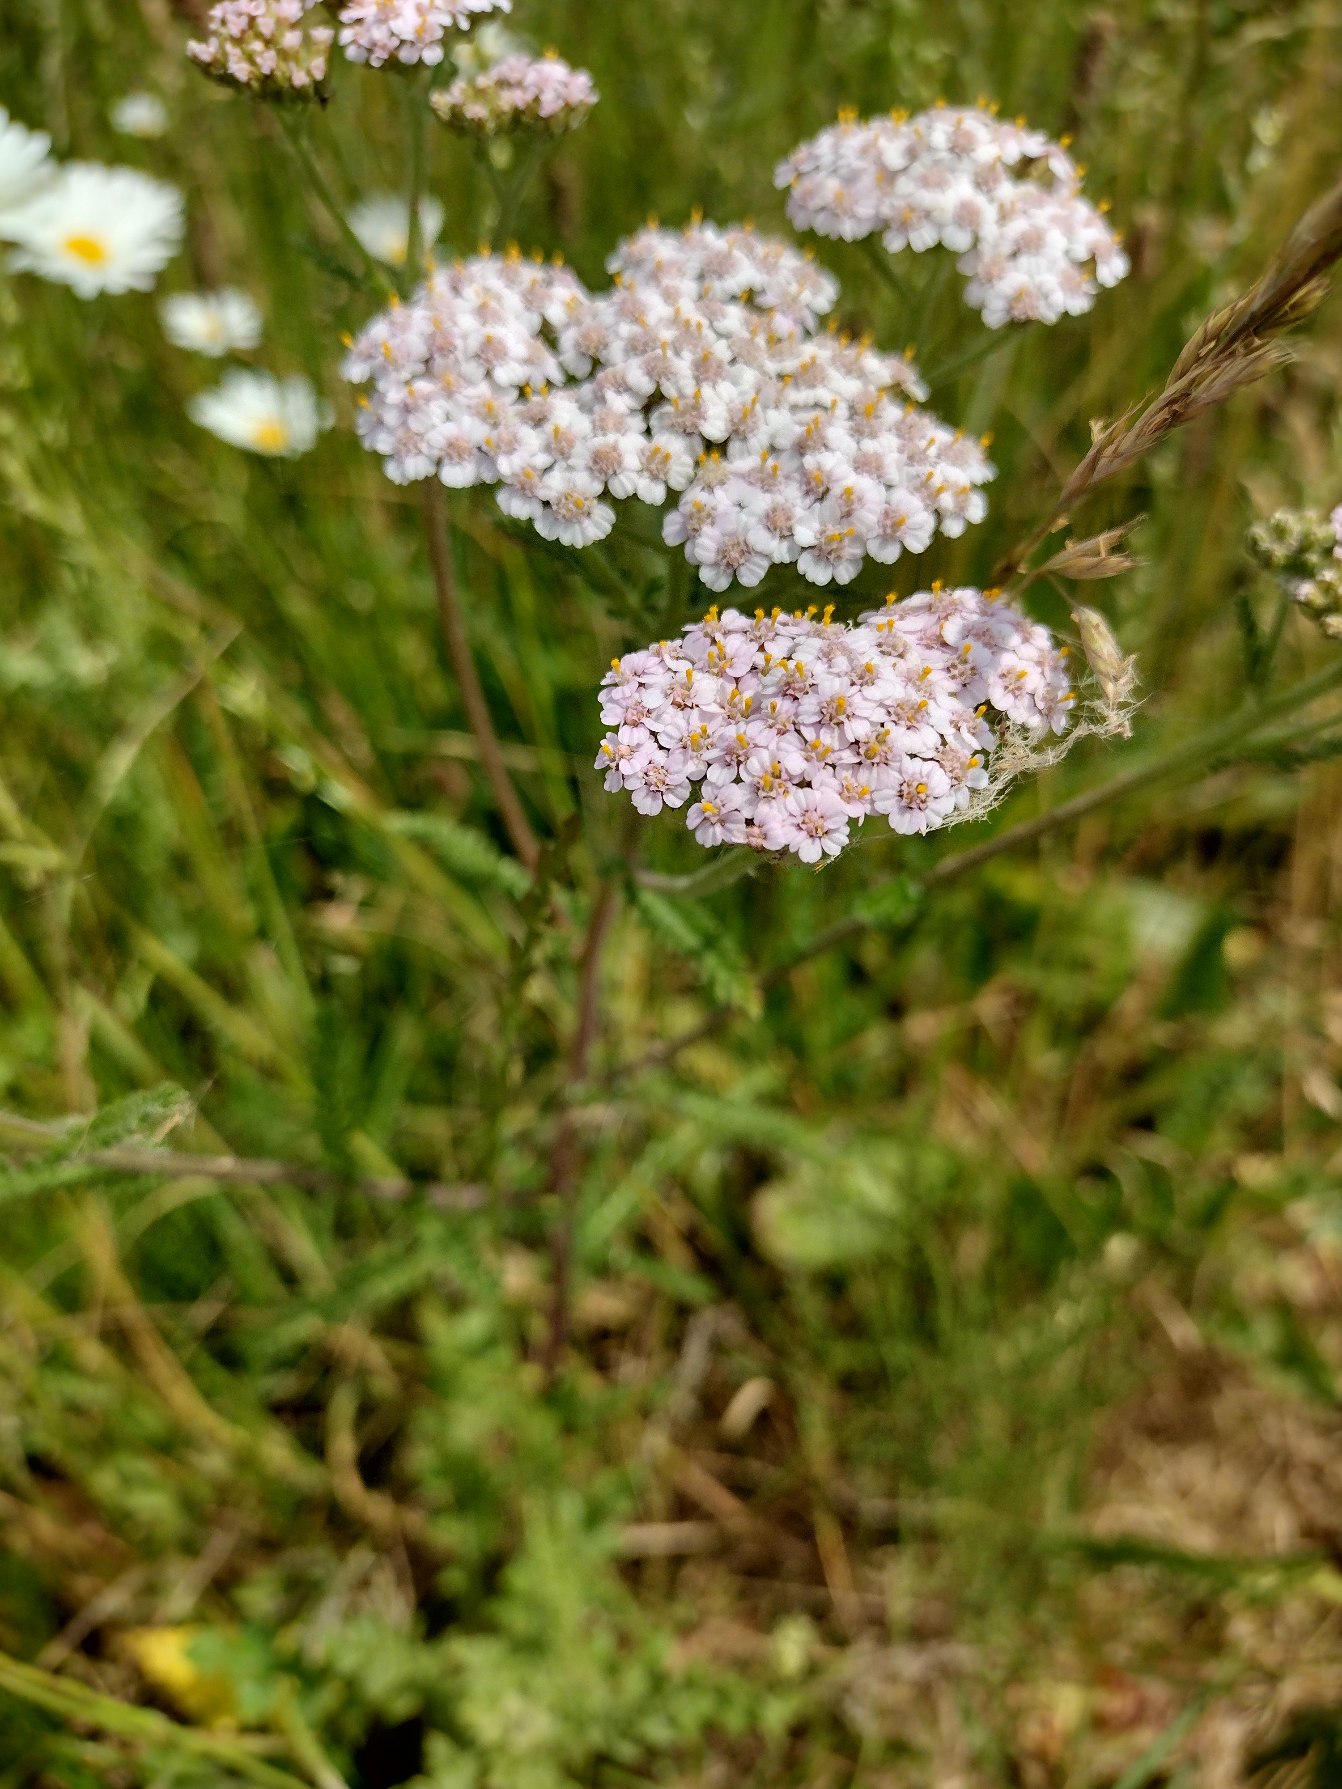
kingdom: Plantae
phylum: Tracheophyta
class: Magnoliopsida
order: Asterales
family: Asteraceae
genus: Achillea
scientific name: Achillea millefolium
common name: Almindelig røllike
